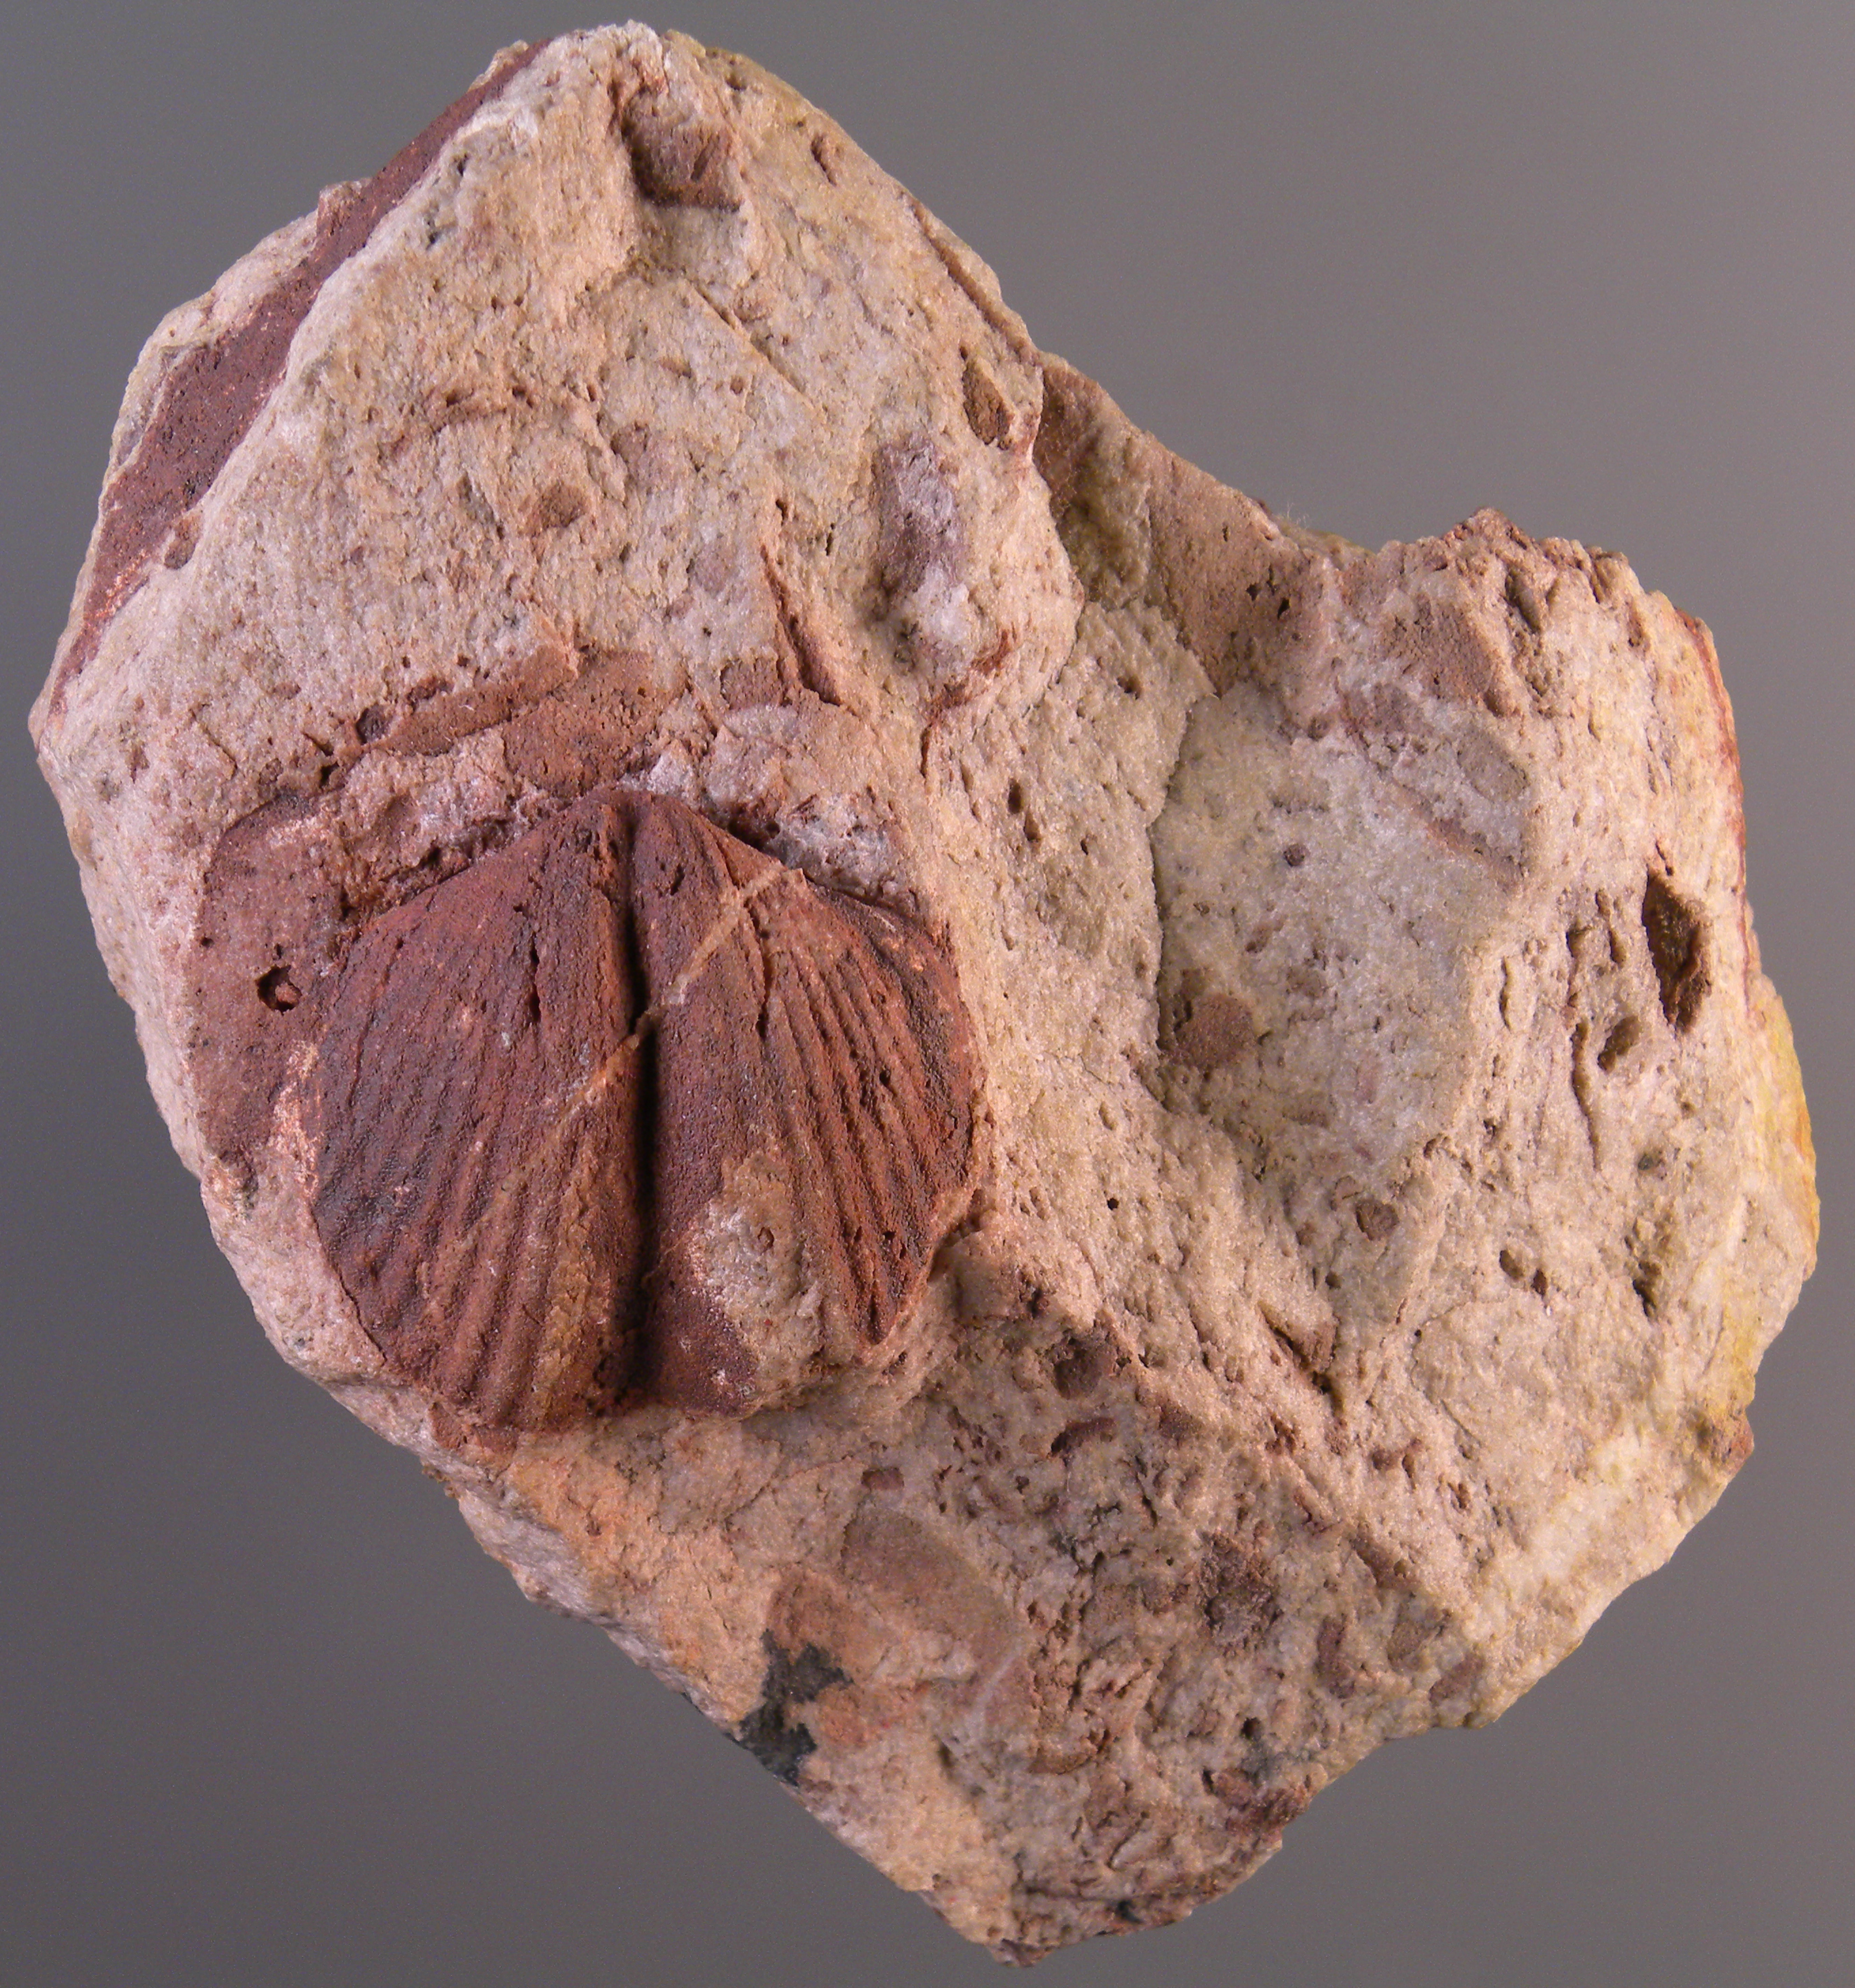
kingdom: Animalia
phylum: Brachiopoda
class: Rhynchonellata
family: Delthyrididae
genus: Brachyspirifer
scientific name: Brachyspirifer
